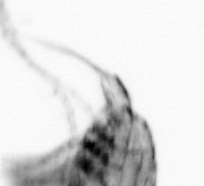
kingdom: Chromista
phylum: Ochrophyta
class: Bacillariophyceae
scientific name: Bacillariophyceae
